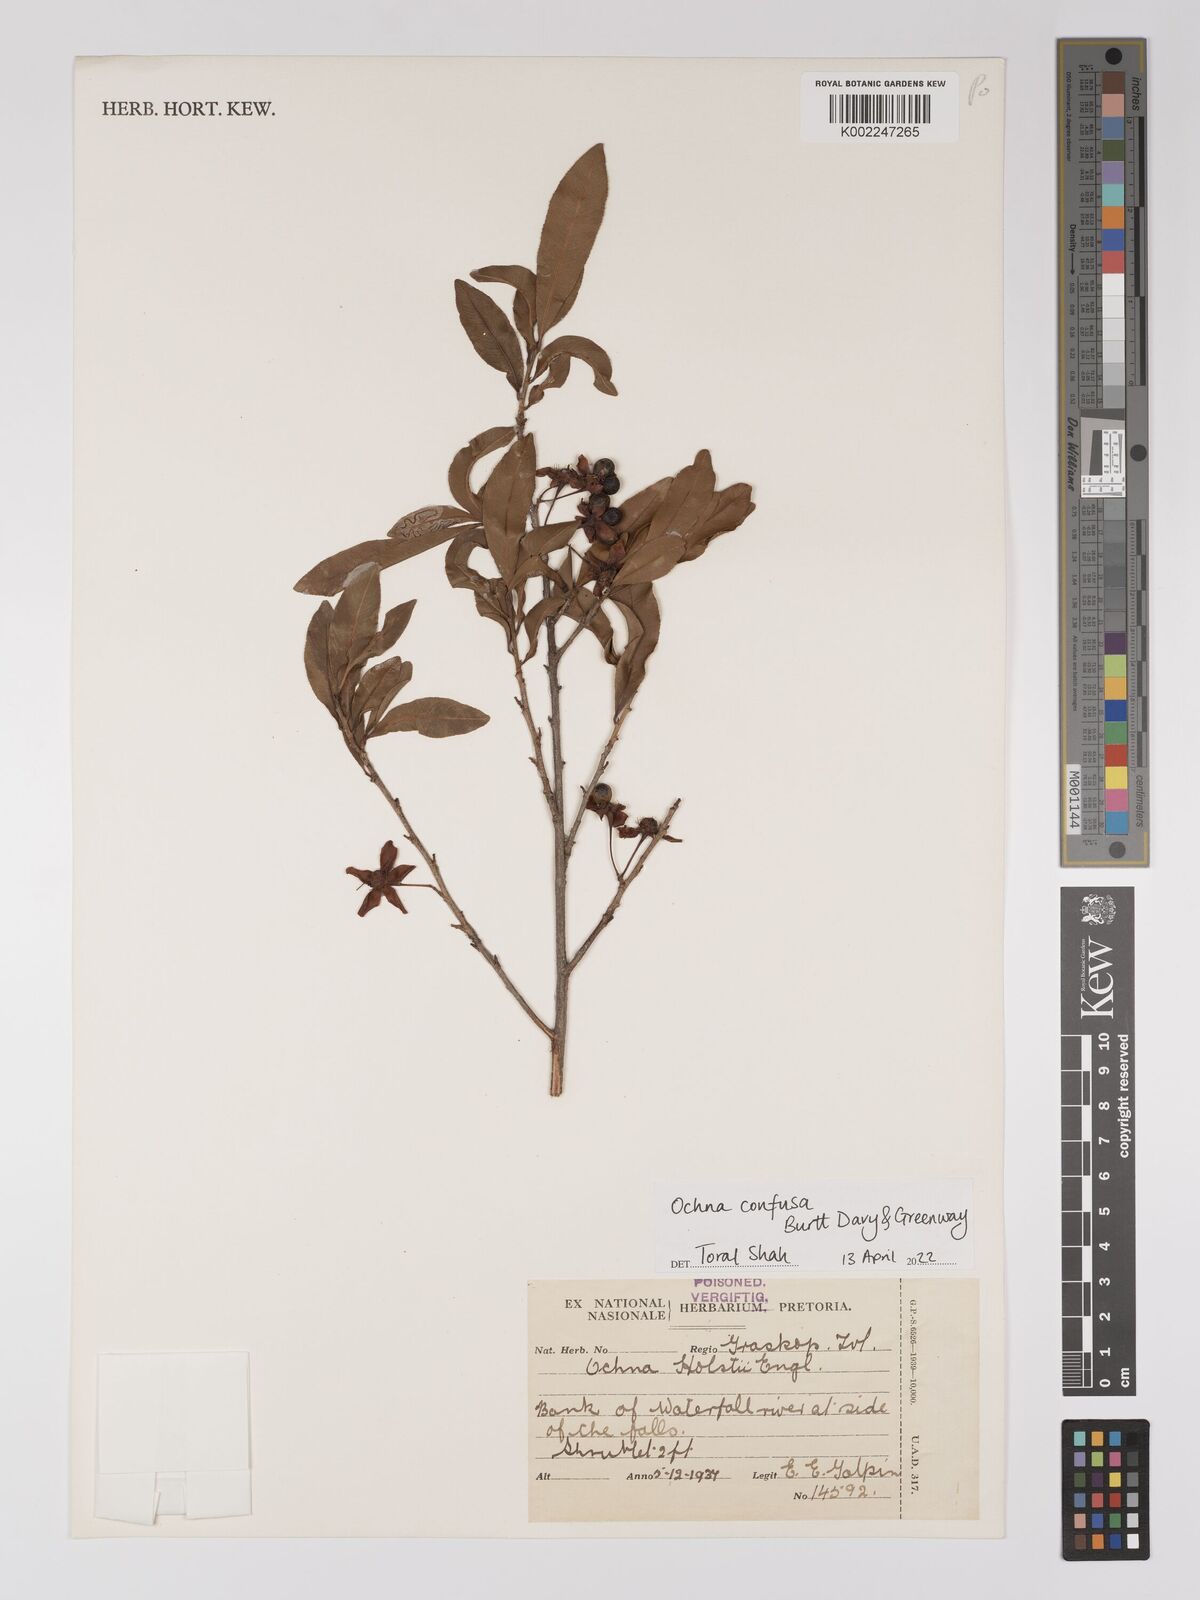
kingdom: Plantae
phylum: Tracheophyta
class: Magnoliopsida
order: Malpighiales
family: Ochnaceae
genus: Ochna
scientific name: Ochna confusa
